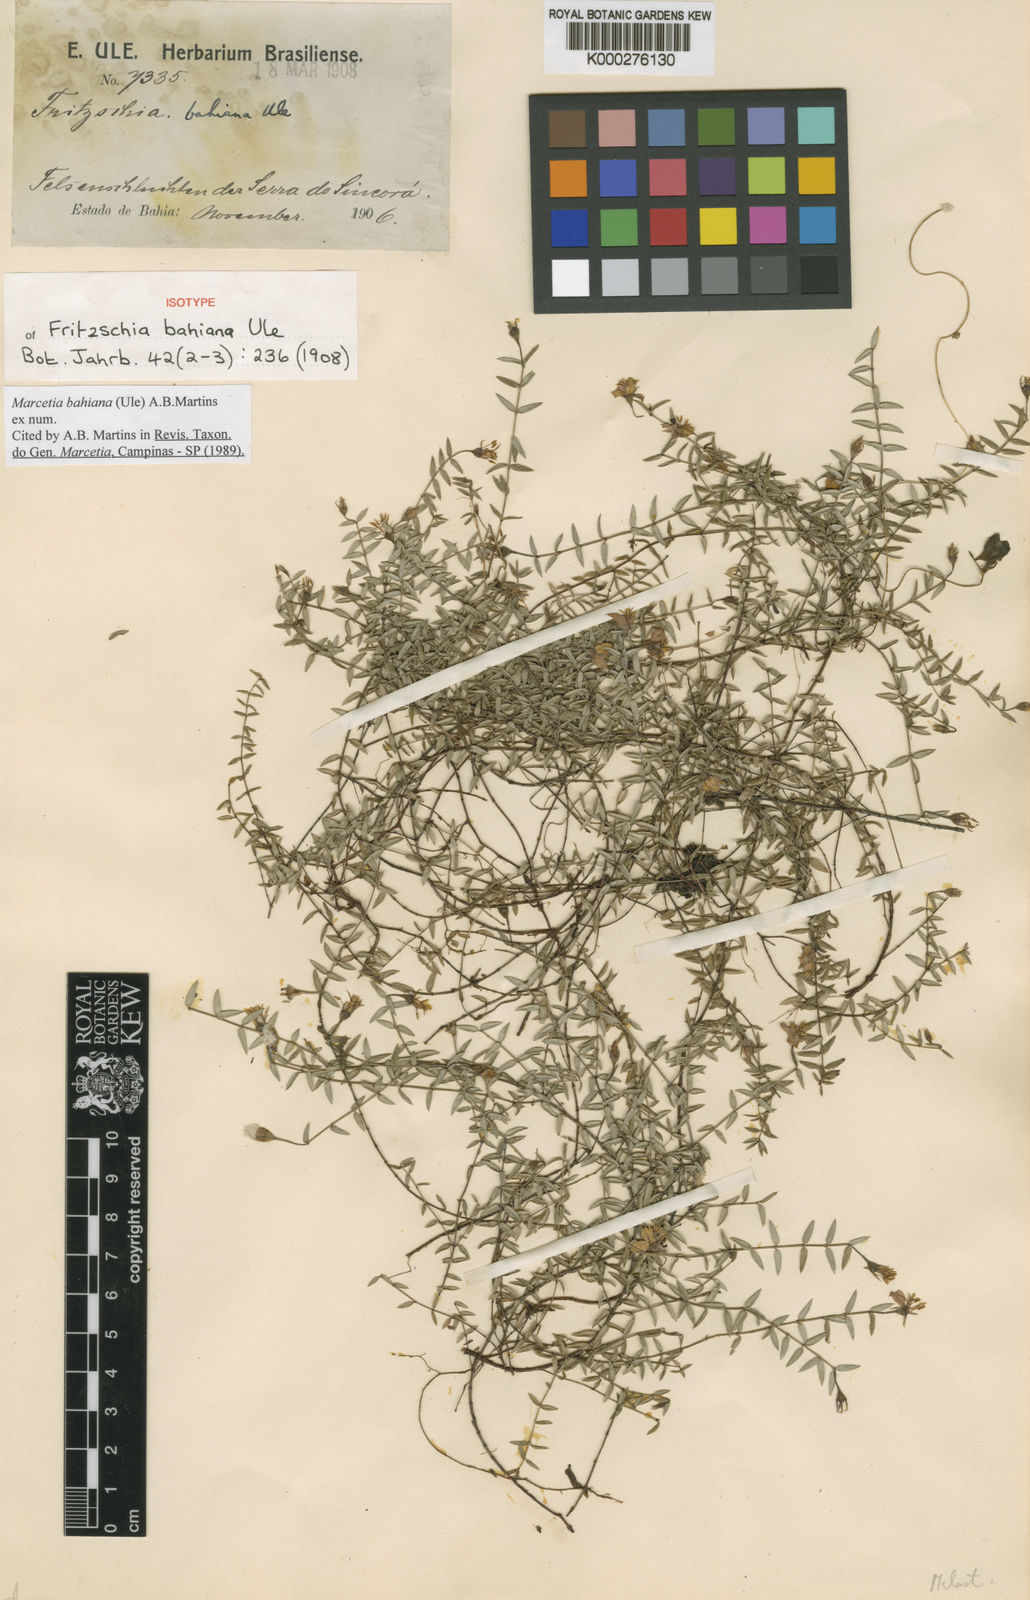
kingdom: Plantae
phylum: Tracheophyta
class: Magnoliopsida
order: Myrtales
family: Melastomataceae
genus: Marcetia
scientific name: Marcetia bahiana
